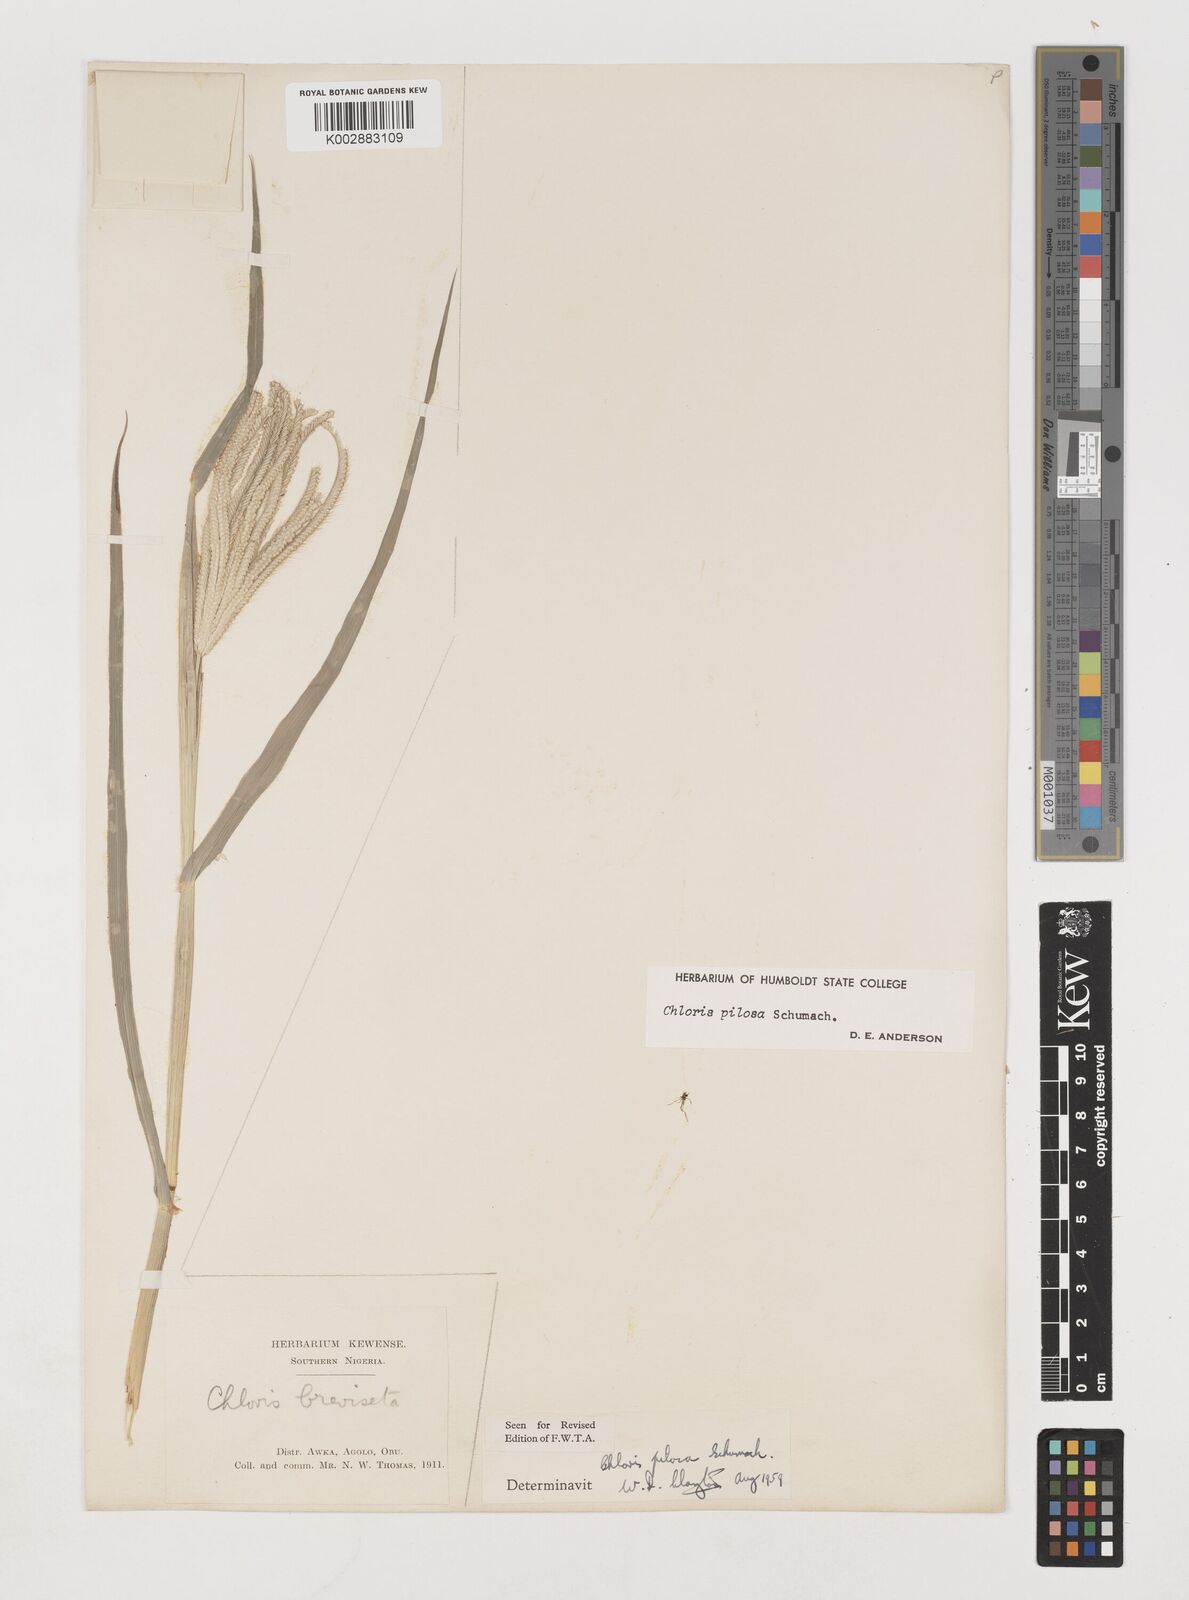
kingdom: Plantae
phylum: Tracheophyta
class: Liliopsida
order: Poales
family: Poaceae
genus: Chloris
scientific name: Chloris pilosa
